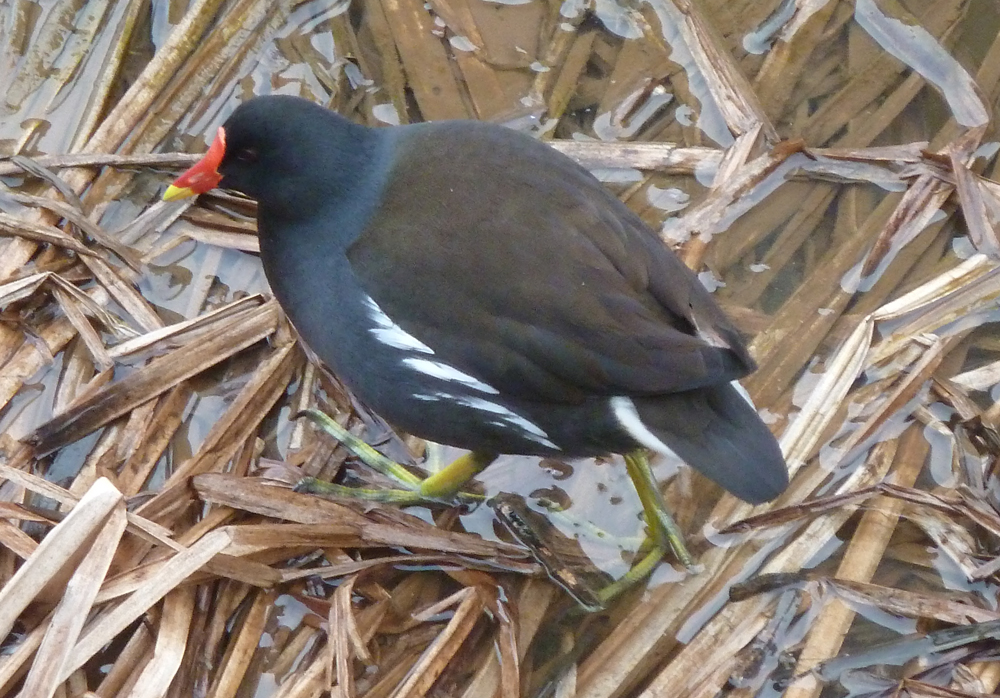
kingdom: Animalia
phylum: Chordata
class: Aves
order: Gruiformes
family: Rallidae
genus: Gallinula
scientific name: Gallinula chloropus
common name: Common moorhen
